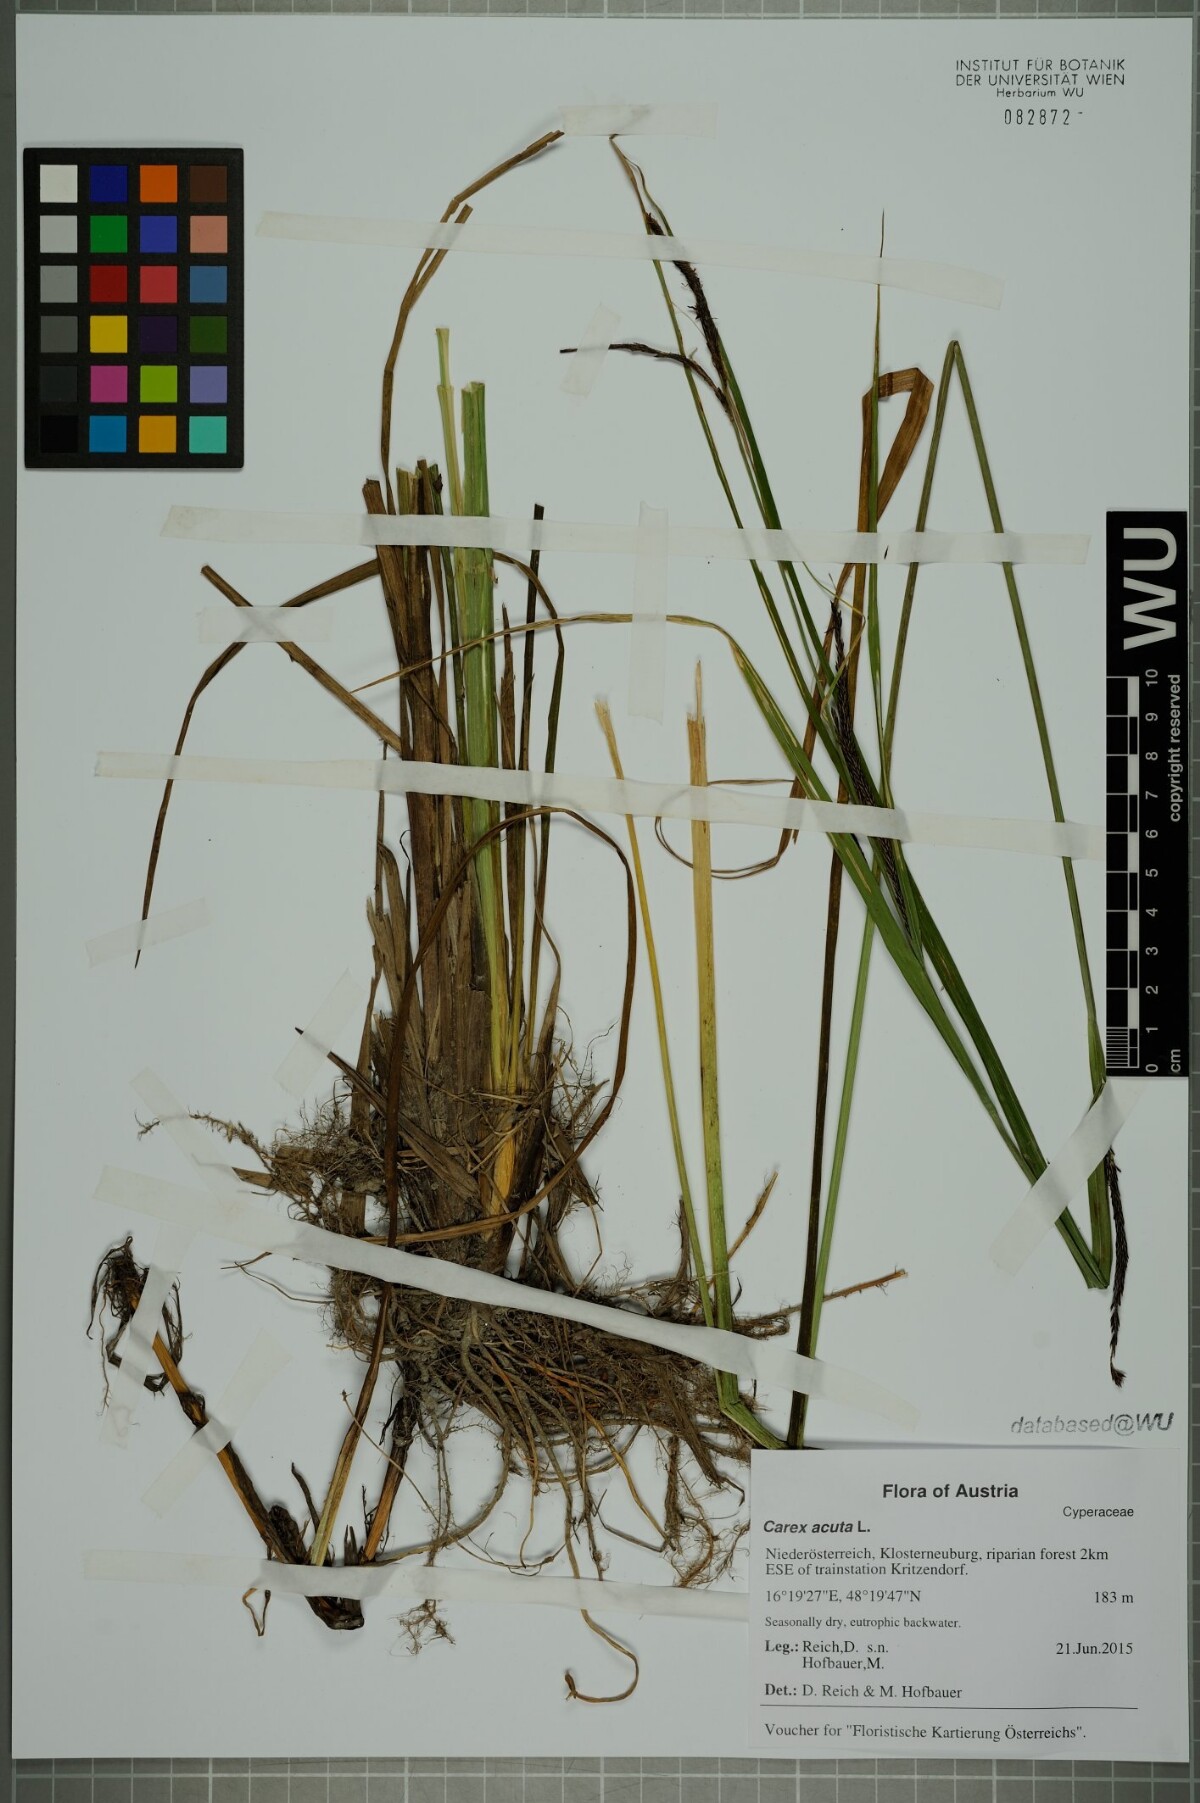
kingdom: Plantae
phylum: Tracheophyta
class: Liliopsida
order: Poales
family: Cyperaceae
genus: Carex
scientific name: Carex acuta
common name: Slender tufted-sedge
